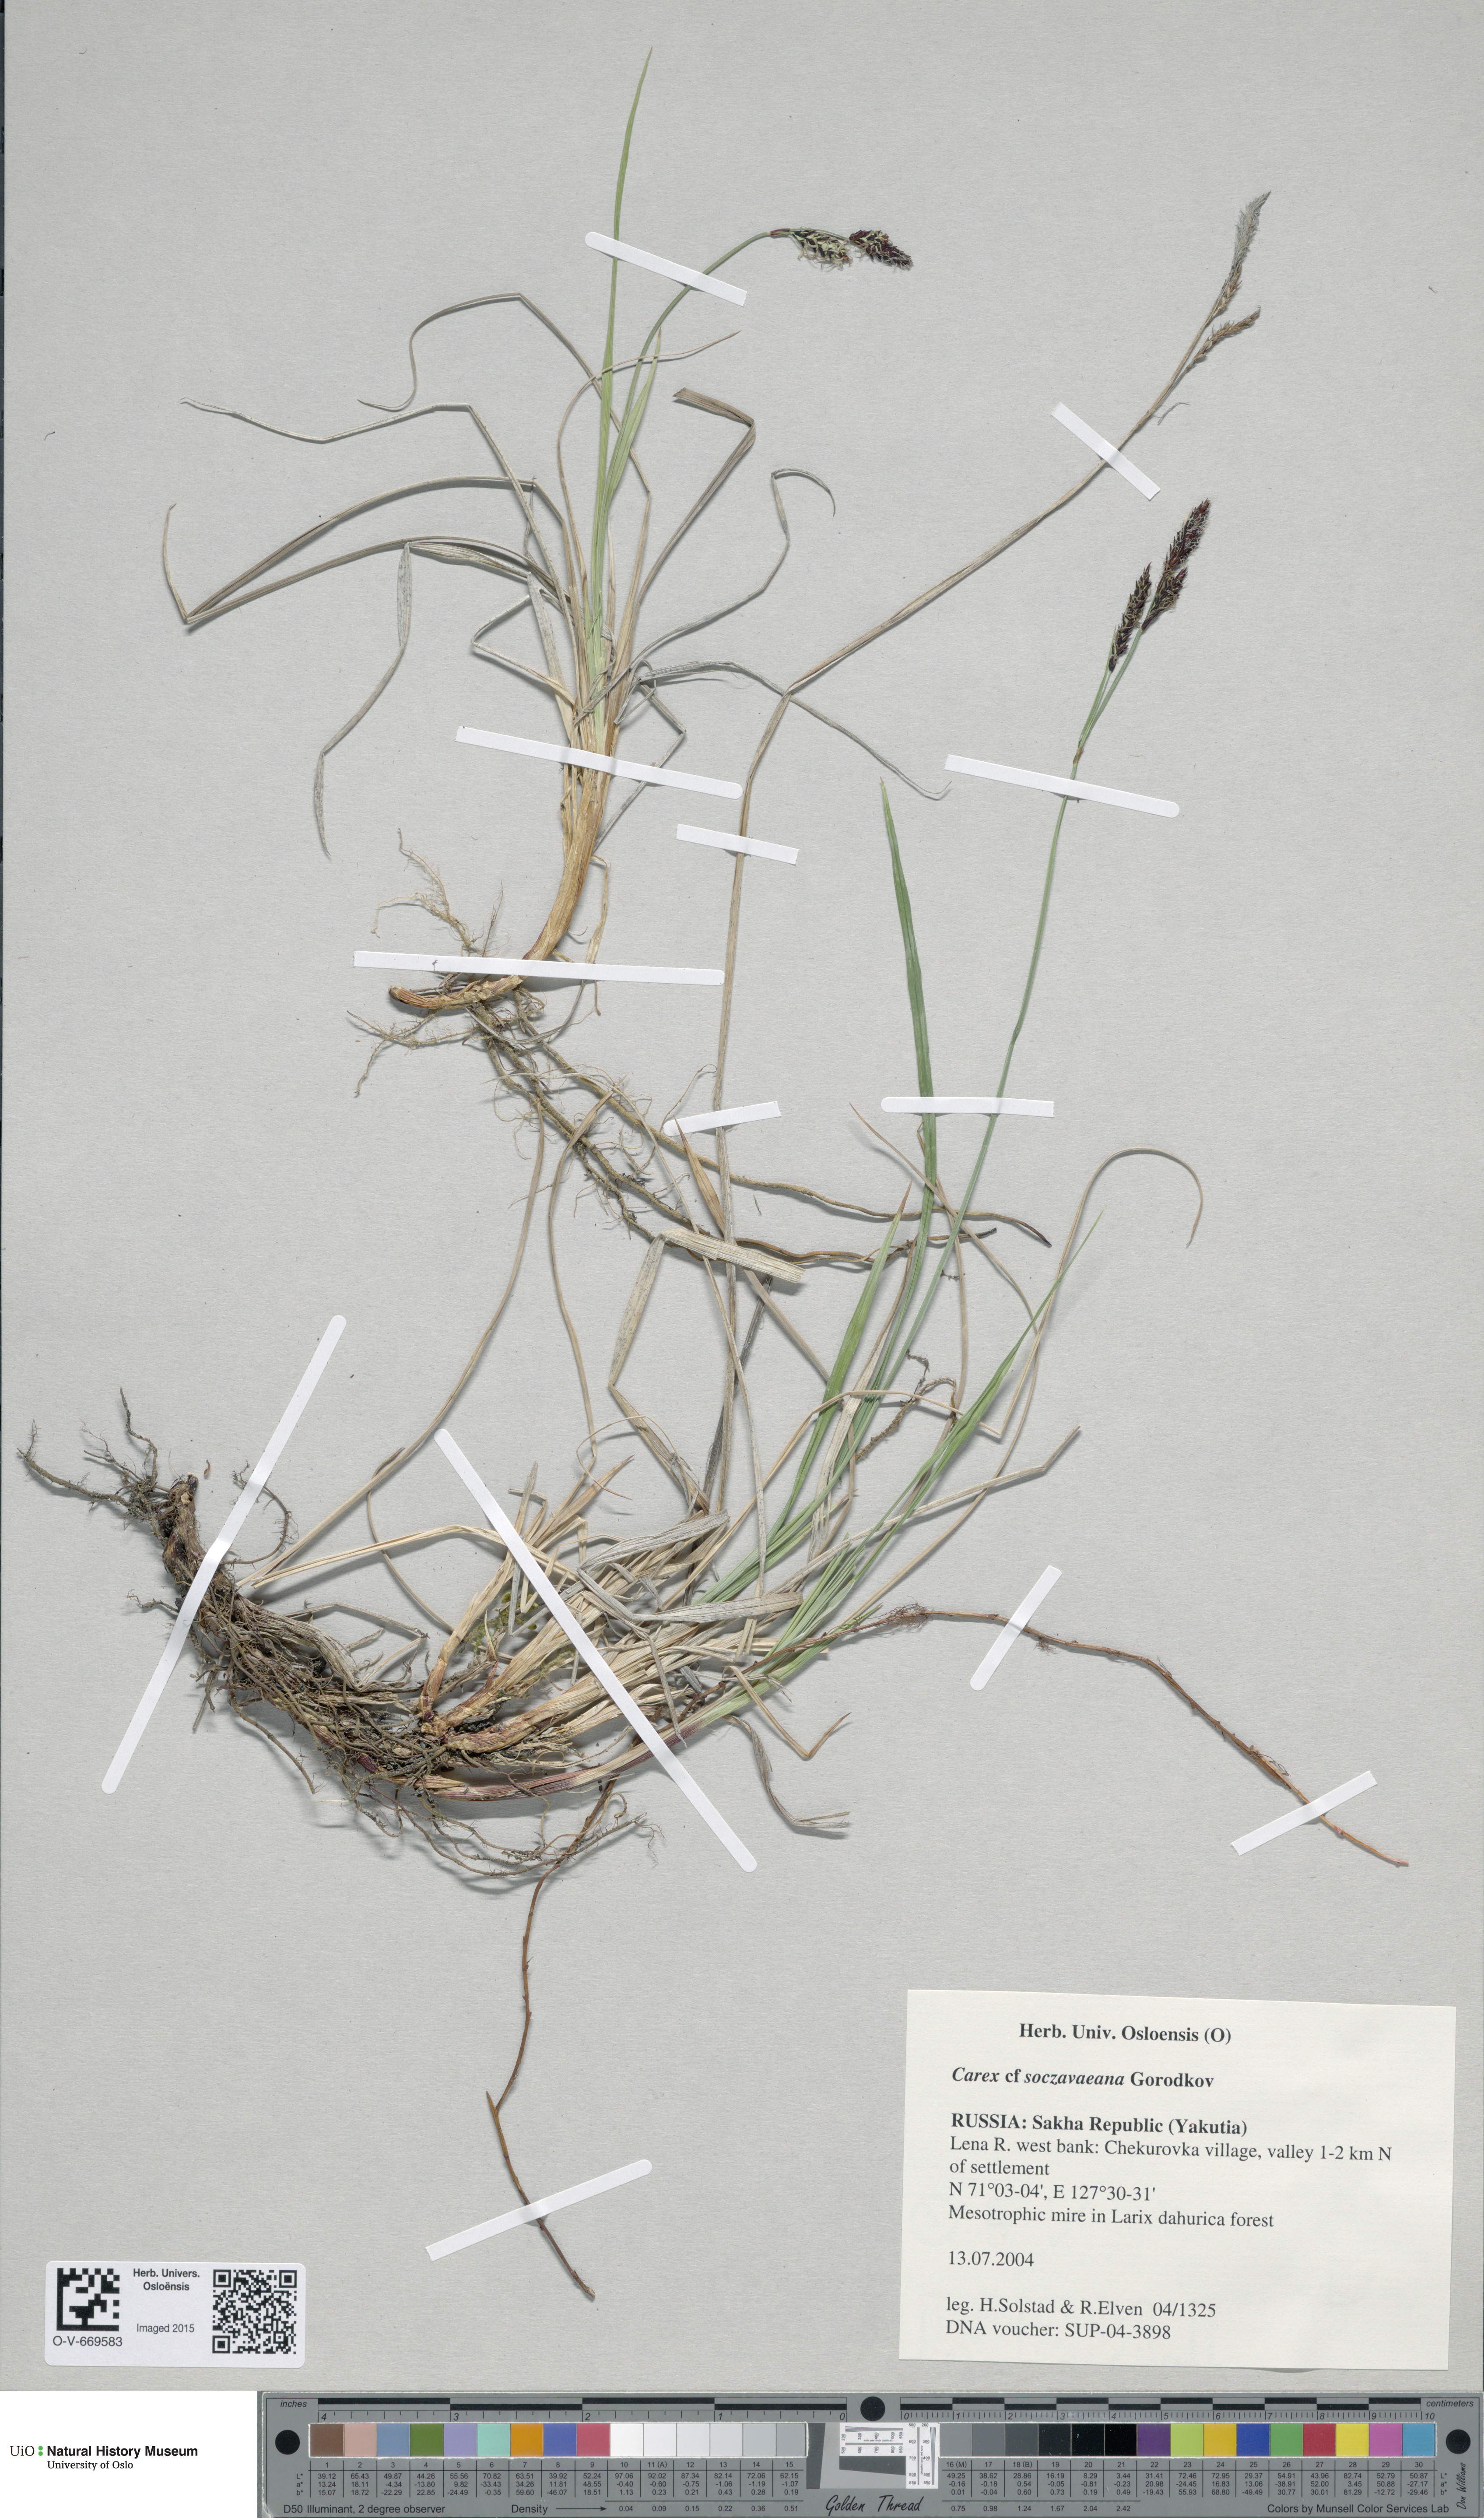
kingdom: Plantae
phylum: Tracheophyta
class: Liliopsida
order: Poales
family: Cyperaceae
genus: Carex
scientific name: Carex soczavaeana
